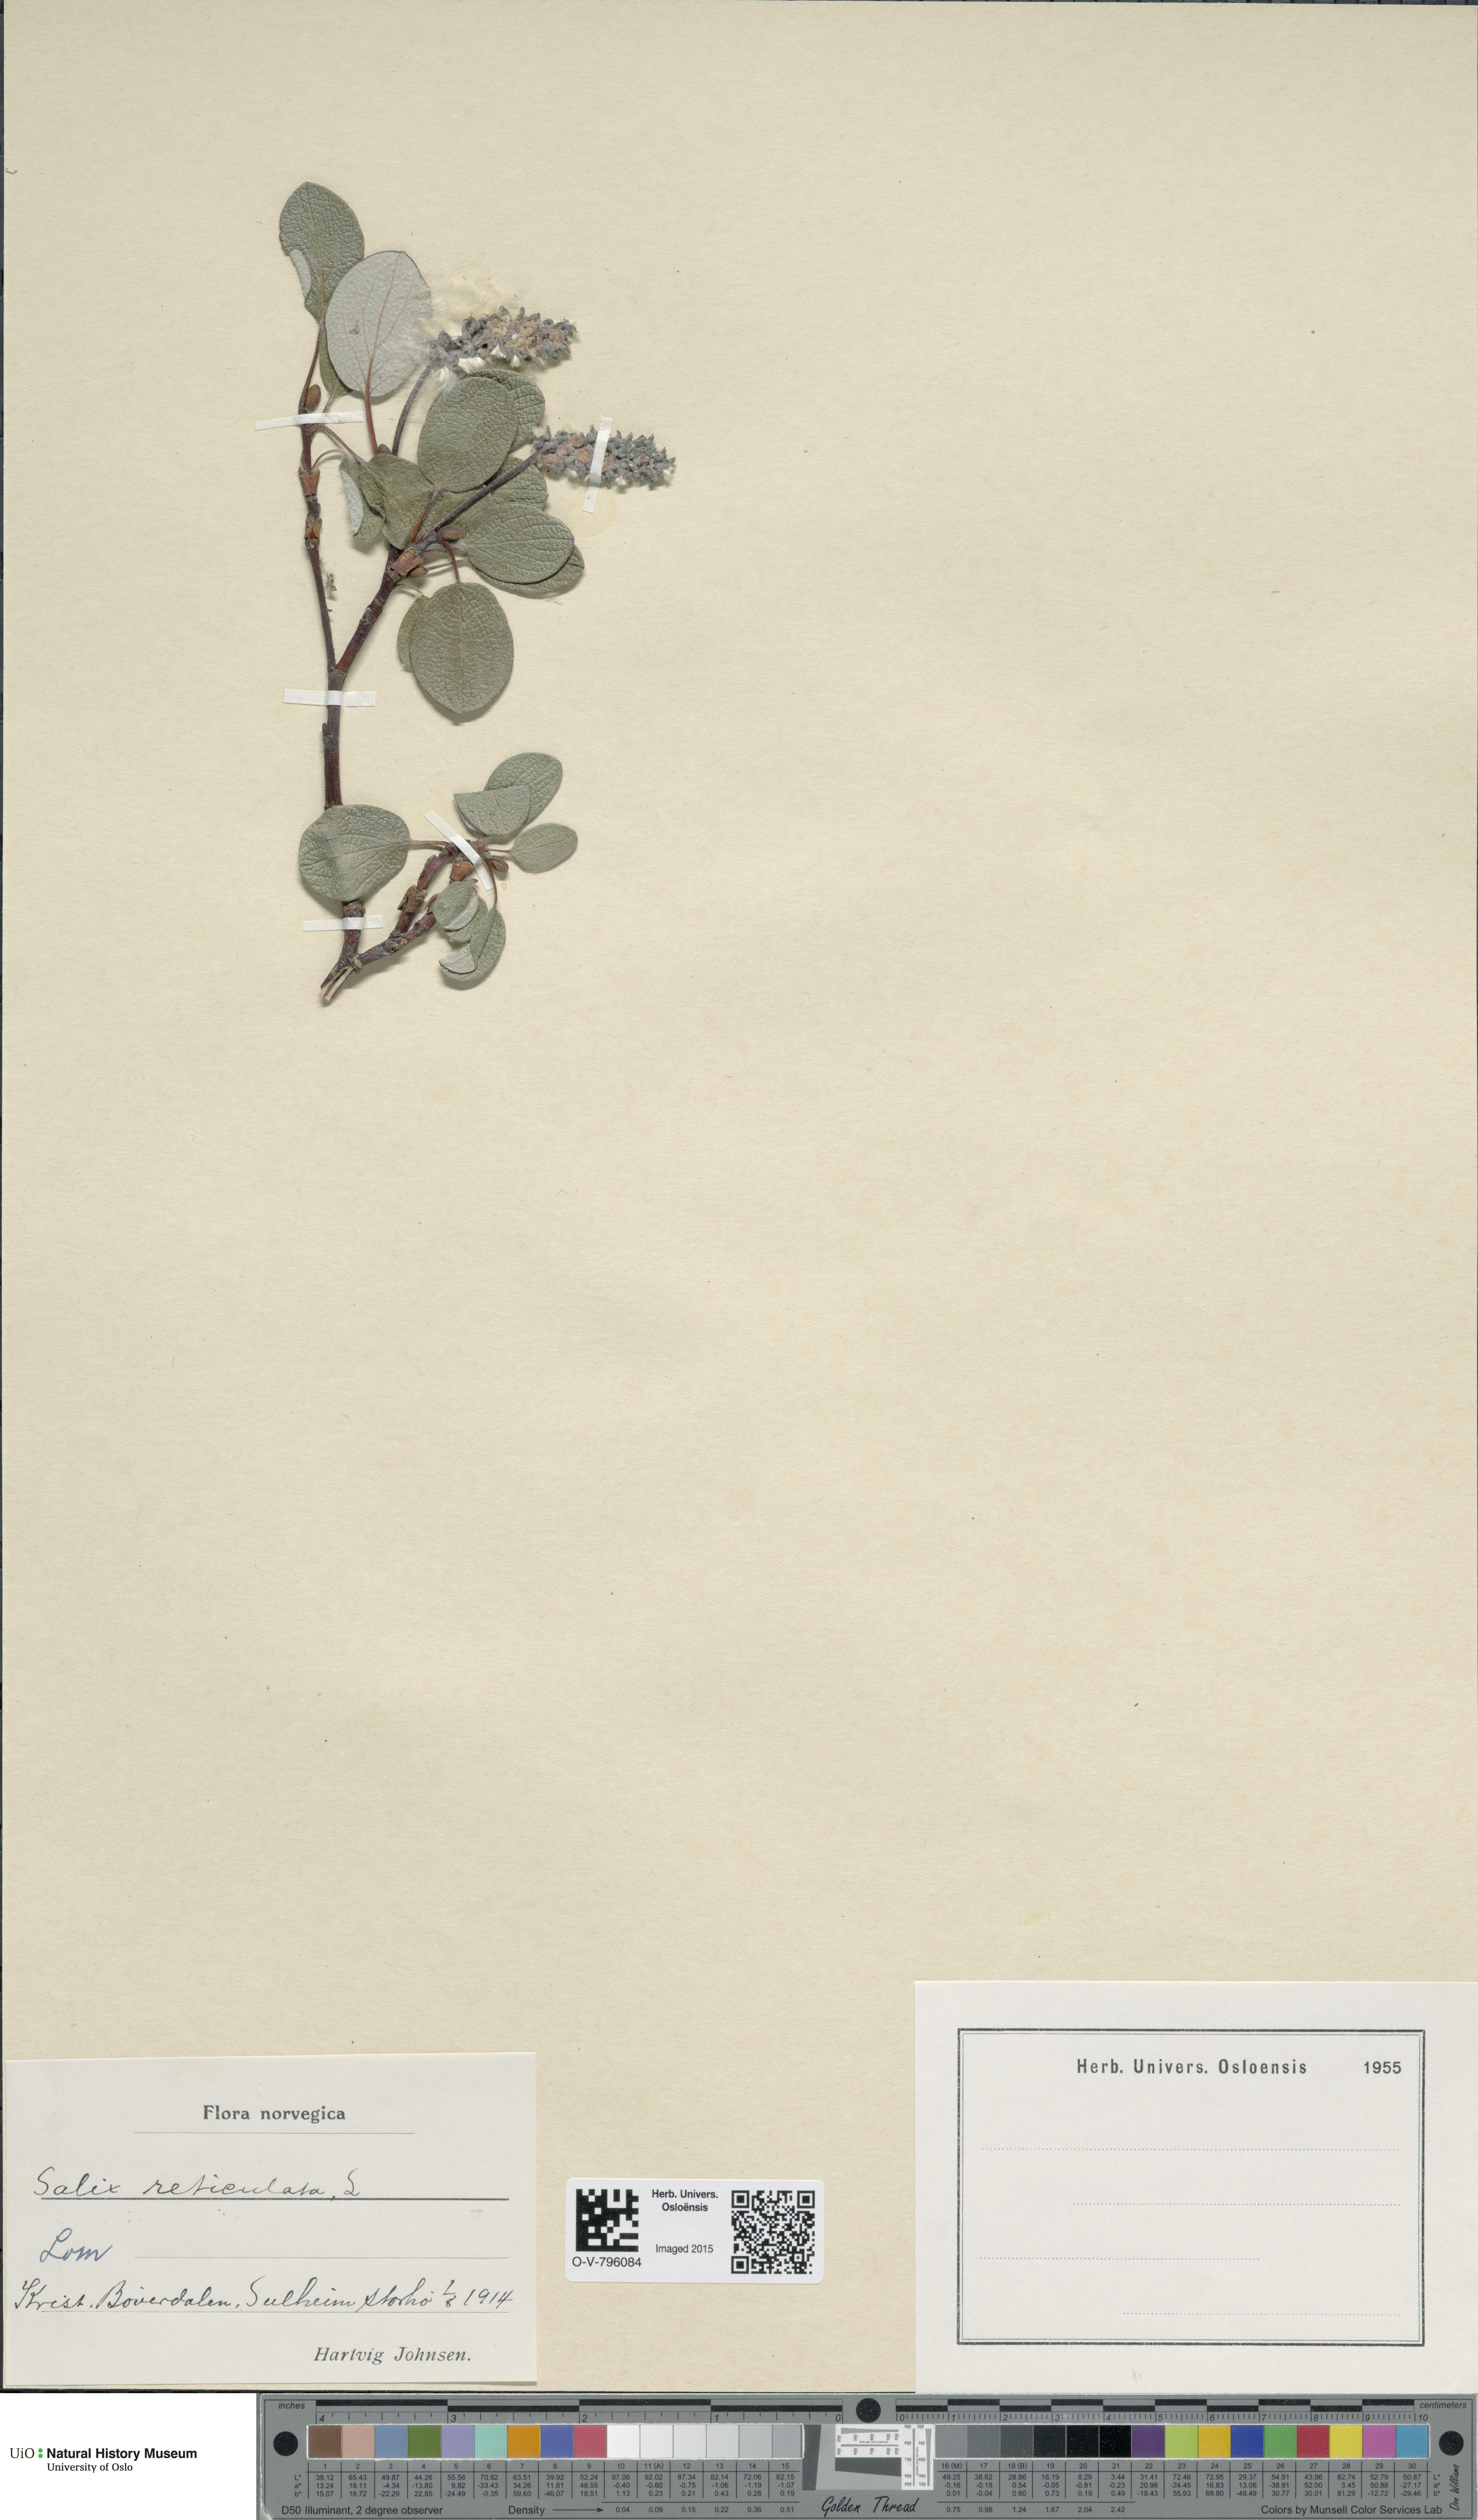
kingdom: Plantae
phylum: Tracheophyta
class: Magnoliopsida
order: Malpighiales
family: Salicaceae
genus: Salix
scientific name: Salix reticulata
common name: Net-leaved willow
